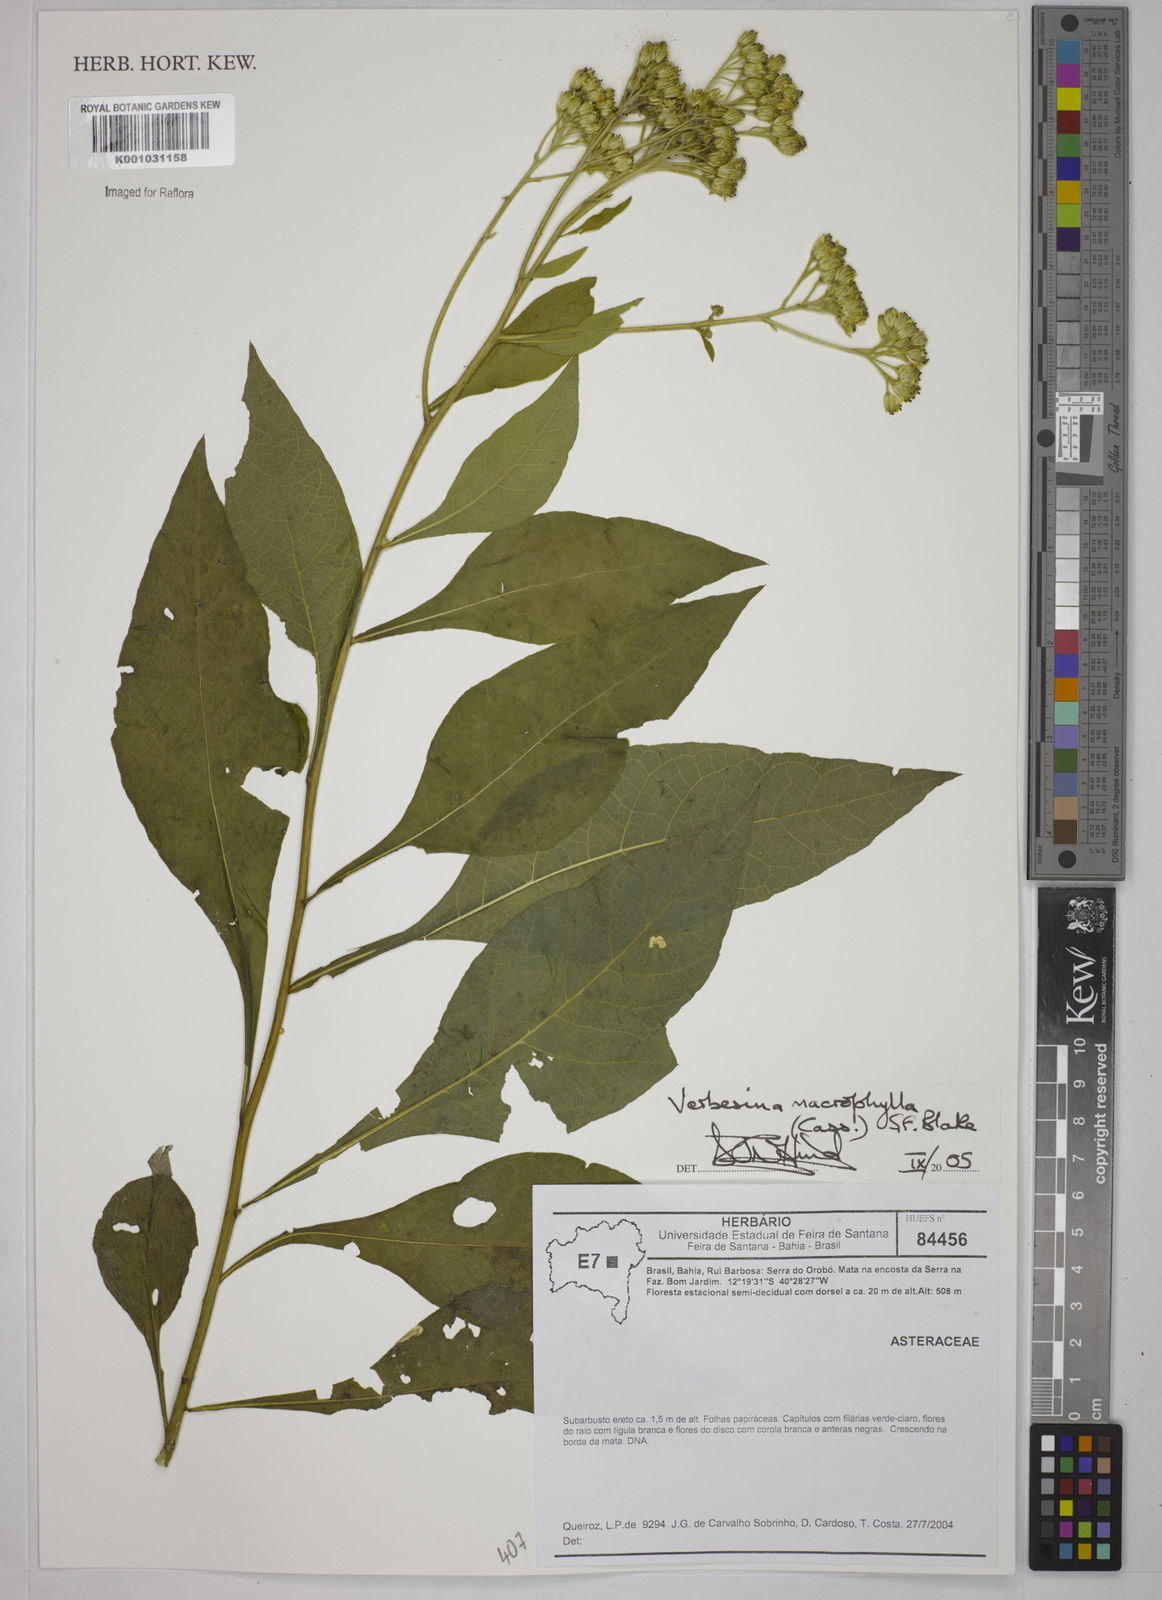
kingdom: Plantae
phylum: Tracheophyta
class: Magnoliopsida
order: Asterales
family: Asteraceae
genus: Verbesina
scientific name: Verbesina macrophylla
